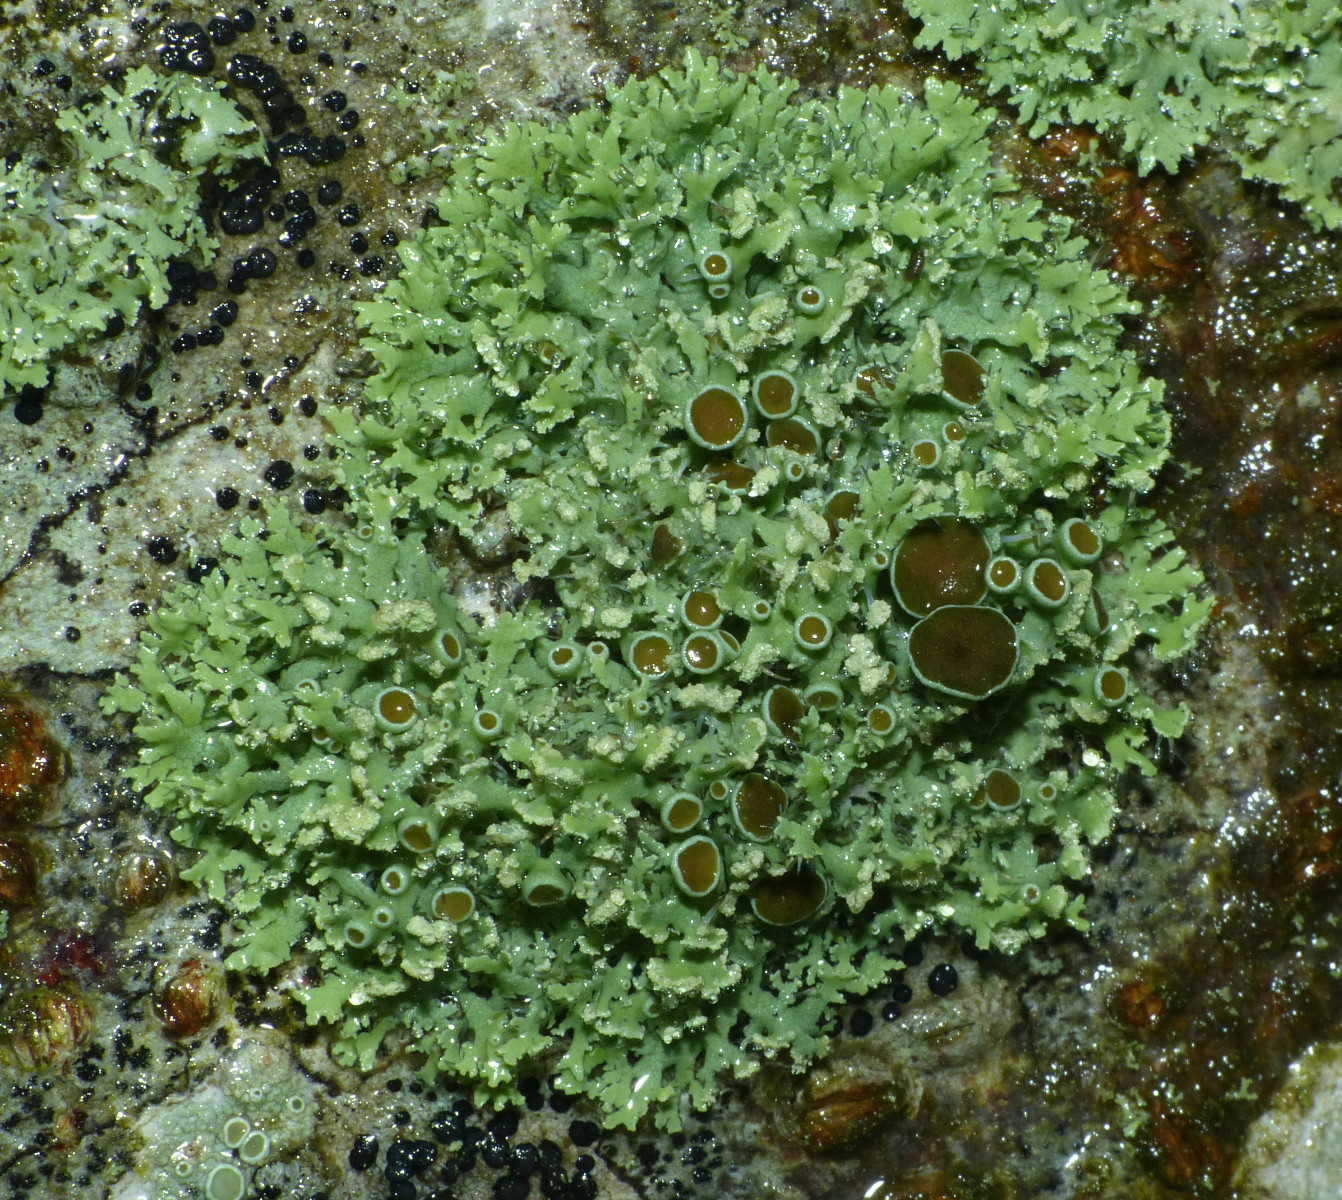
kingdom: Fungi
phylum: Ascomycota
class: Lecanoromycetes
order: Caliciales
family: Physciaceae
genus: Physcia
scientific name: Physcia tenella
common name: spæd rosetlav
